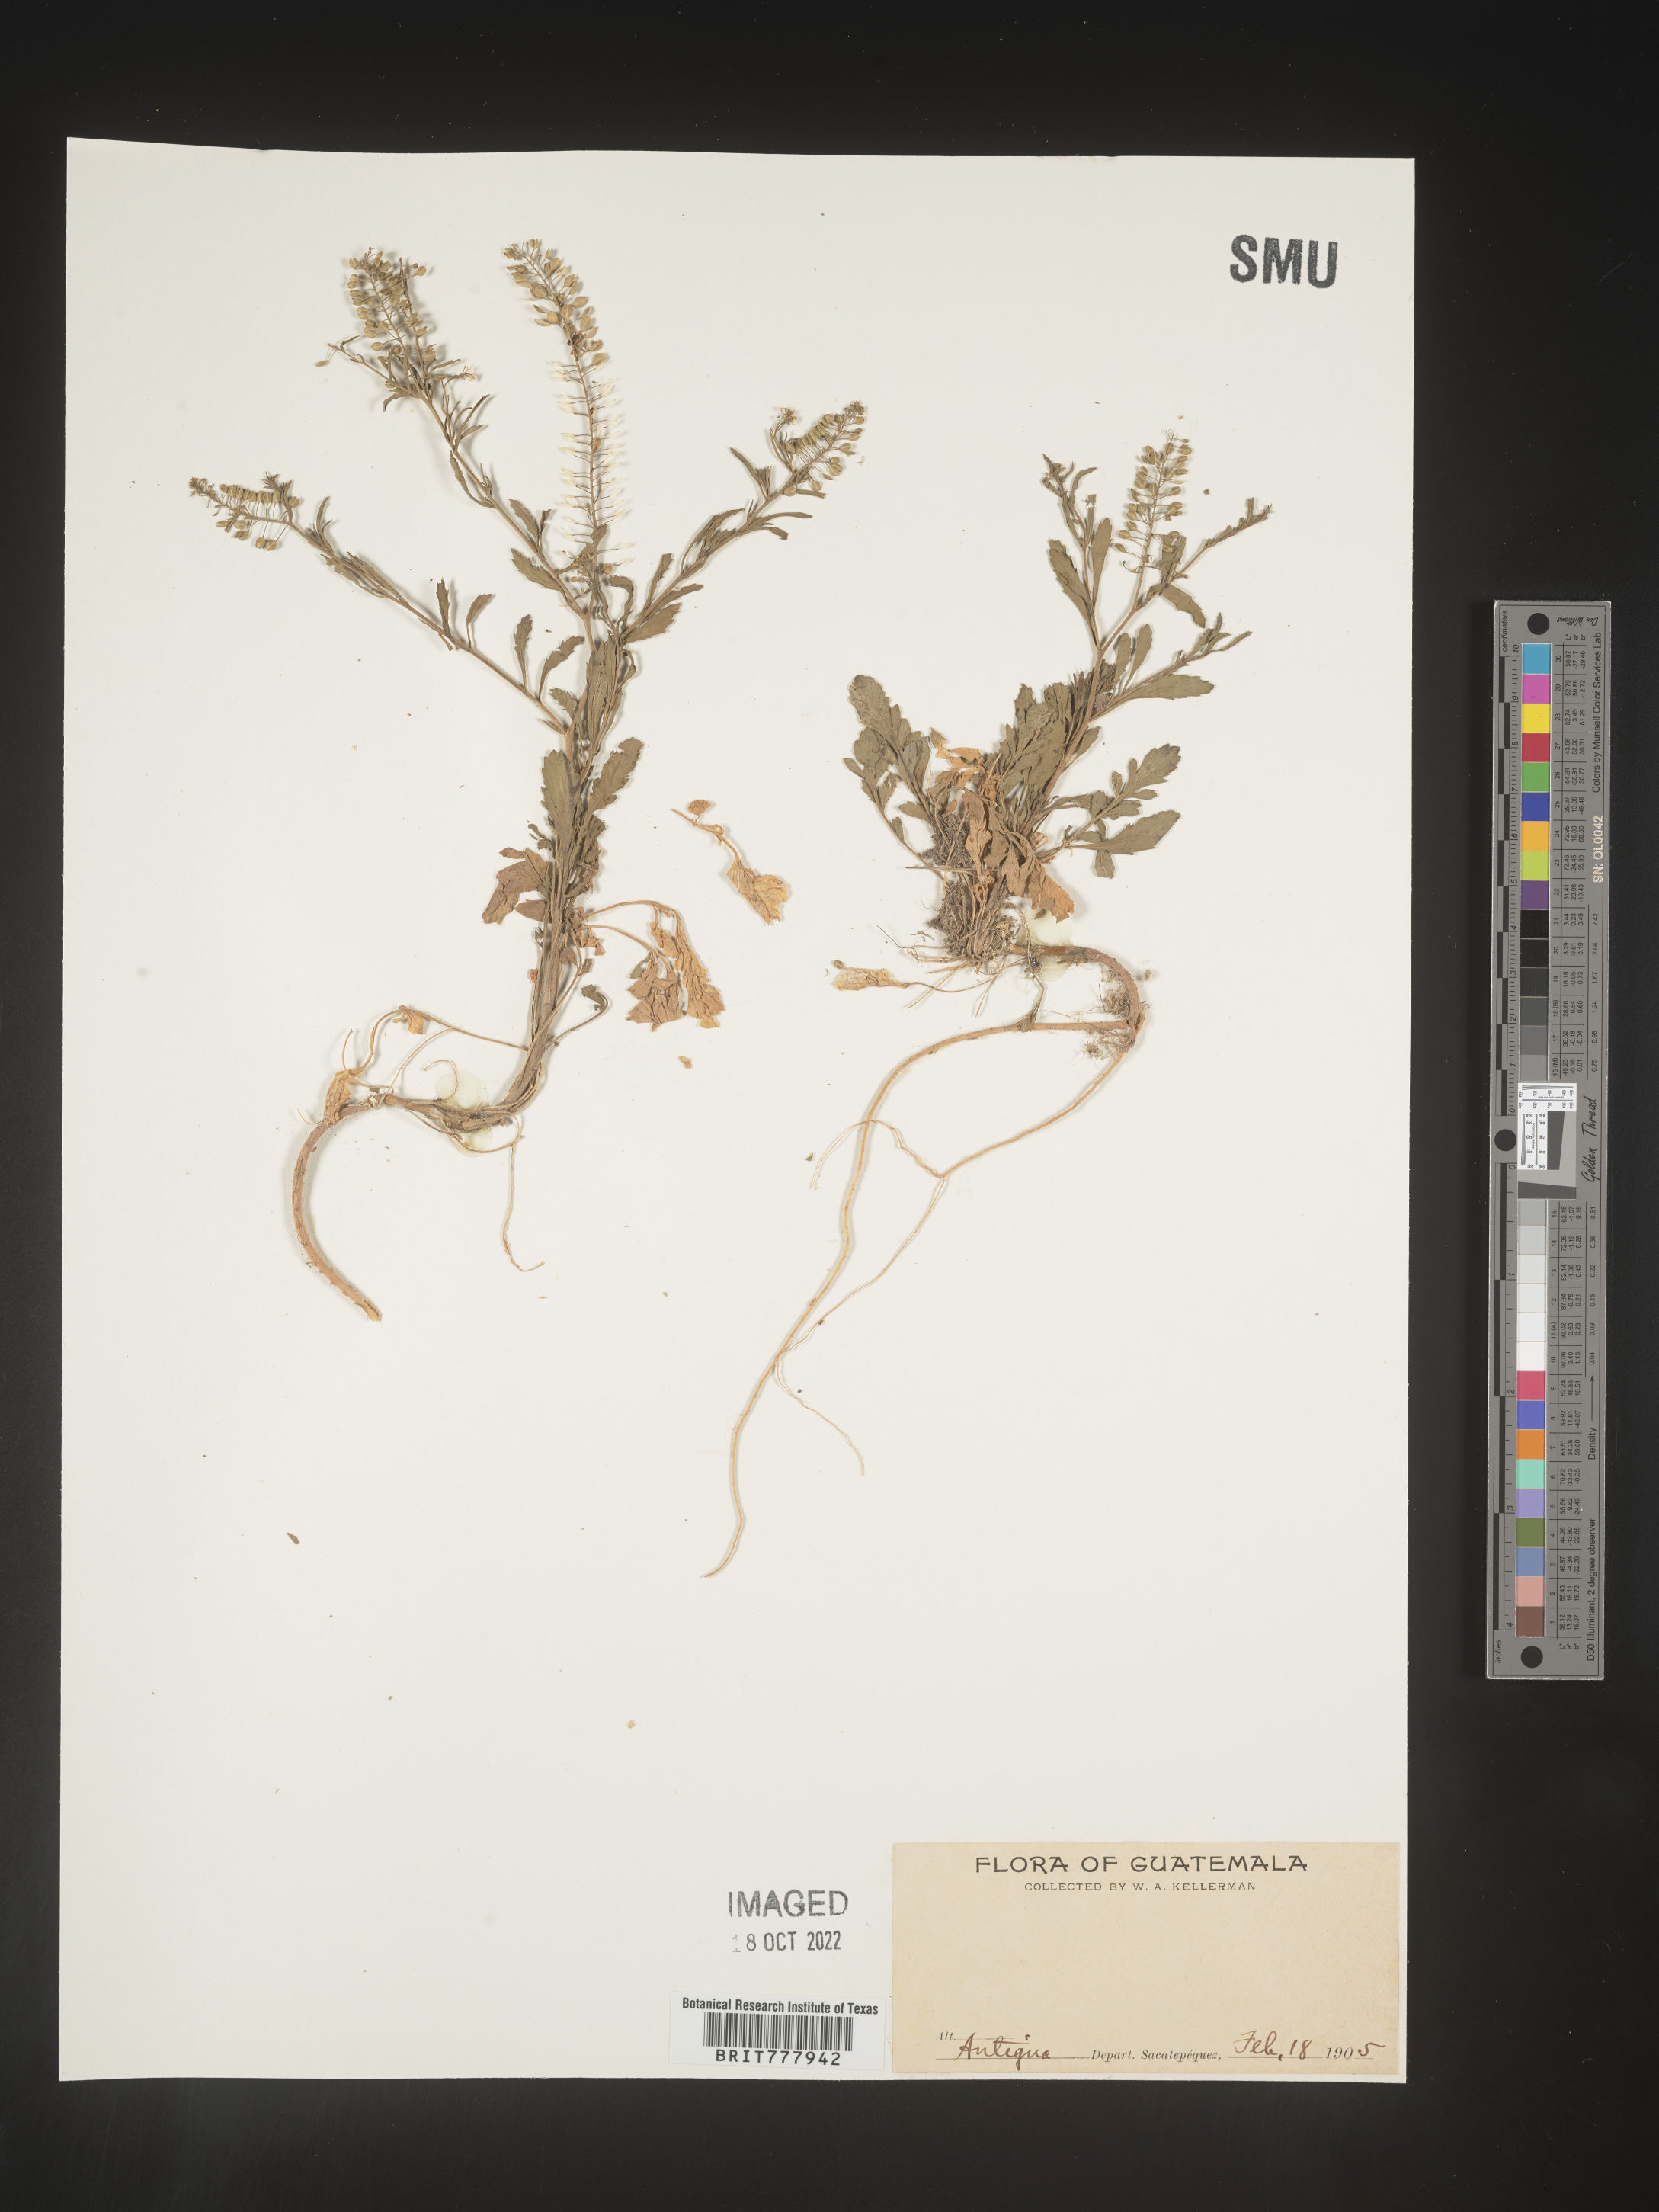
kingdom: Plantae
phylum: Tracheophyta
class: Magnoliopsida
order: Brassicales
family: Brassicaceae
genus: Lepidium
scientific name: Lepidium
